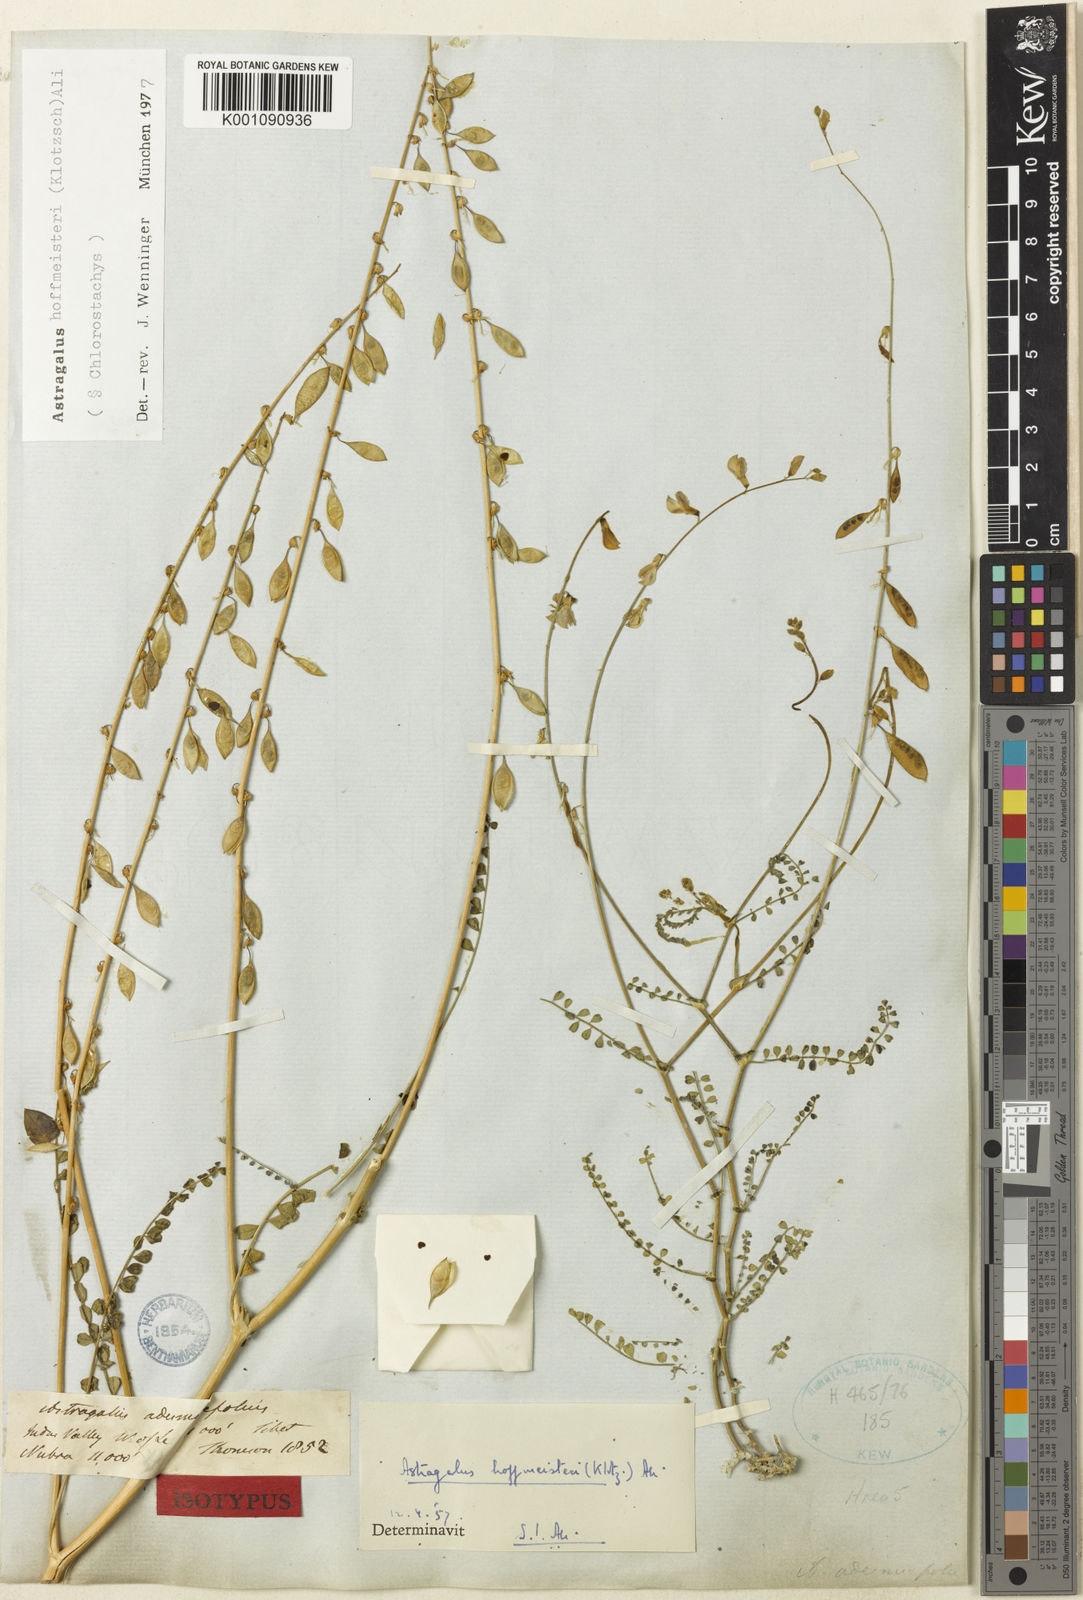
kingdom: Plantae
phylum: Tracheophyta
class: Magnoliopsida
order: Fabales
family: Fabaceae
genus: Astragalus
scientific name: Astragalus hoffmeisteri
